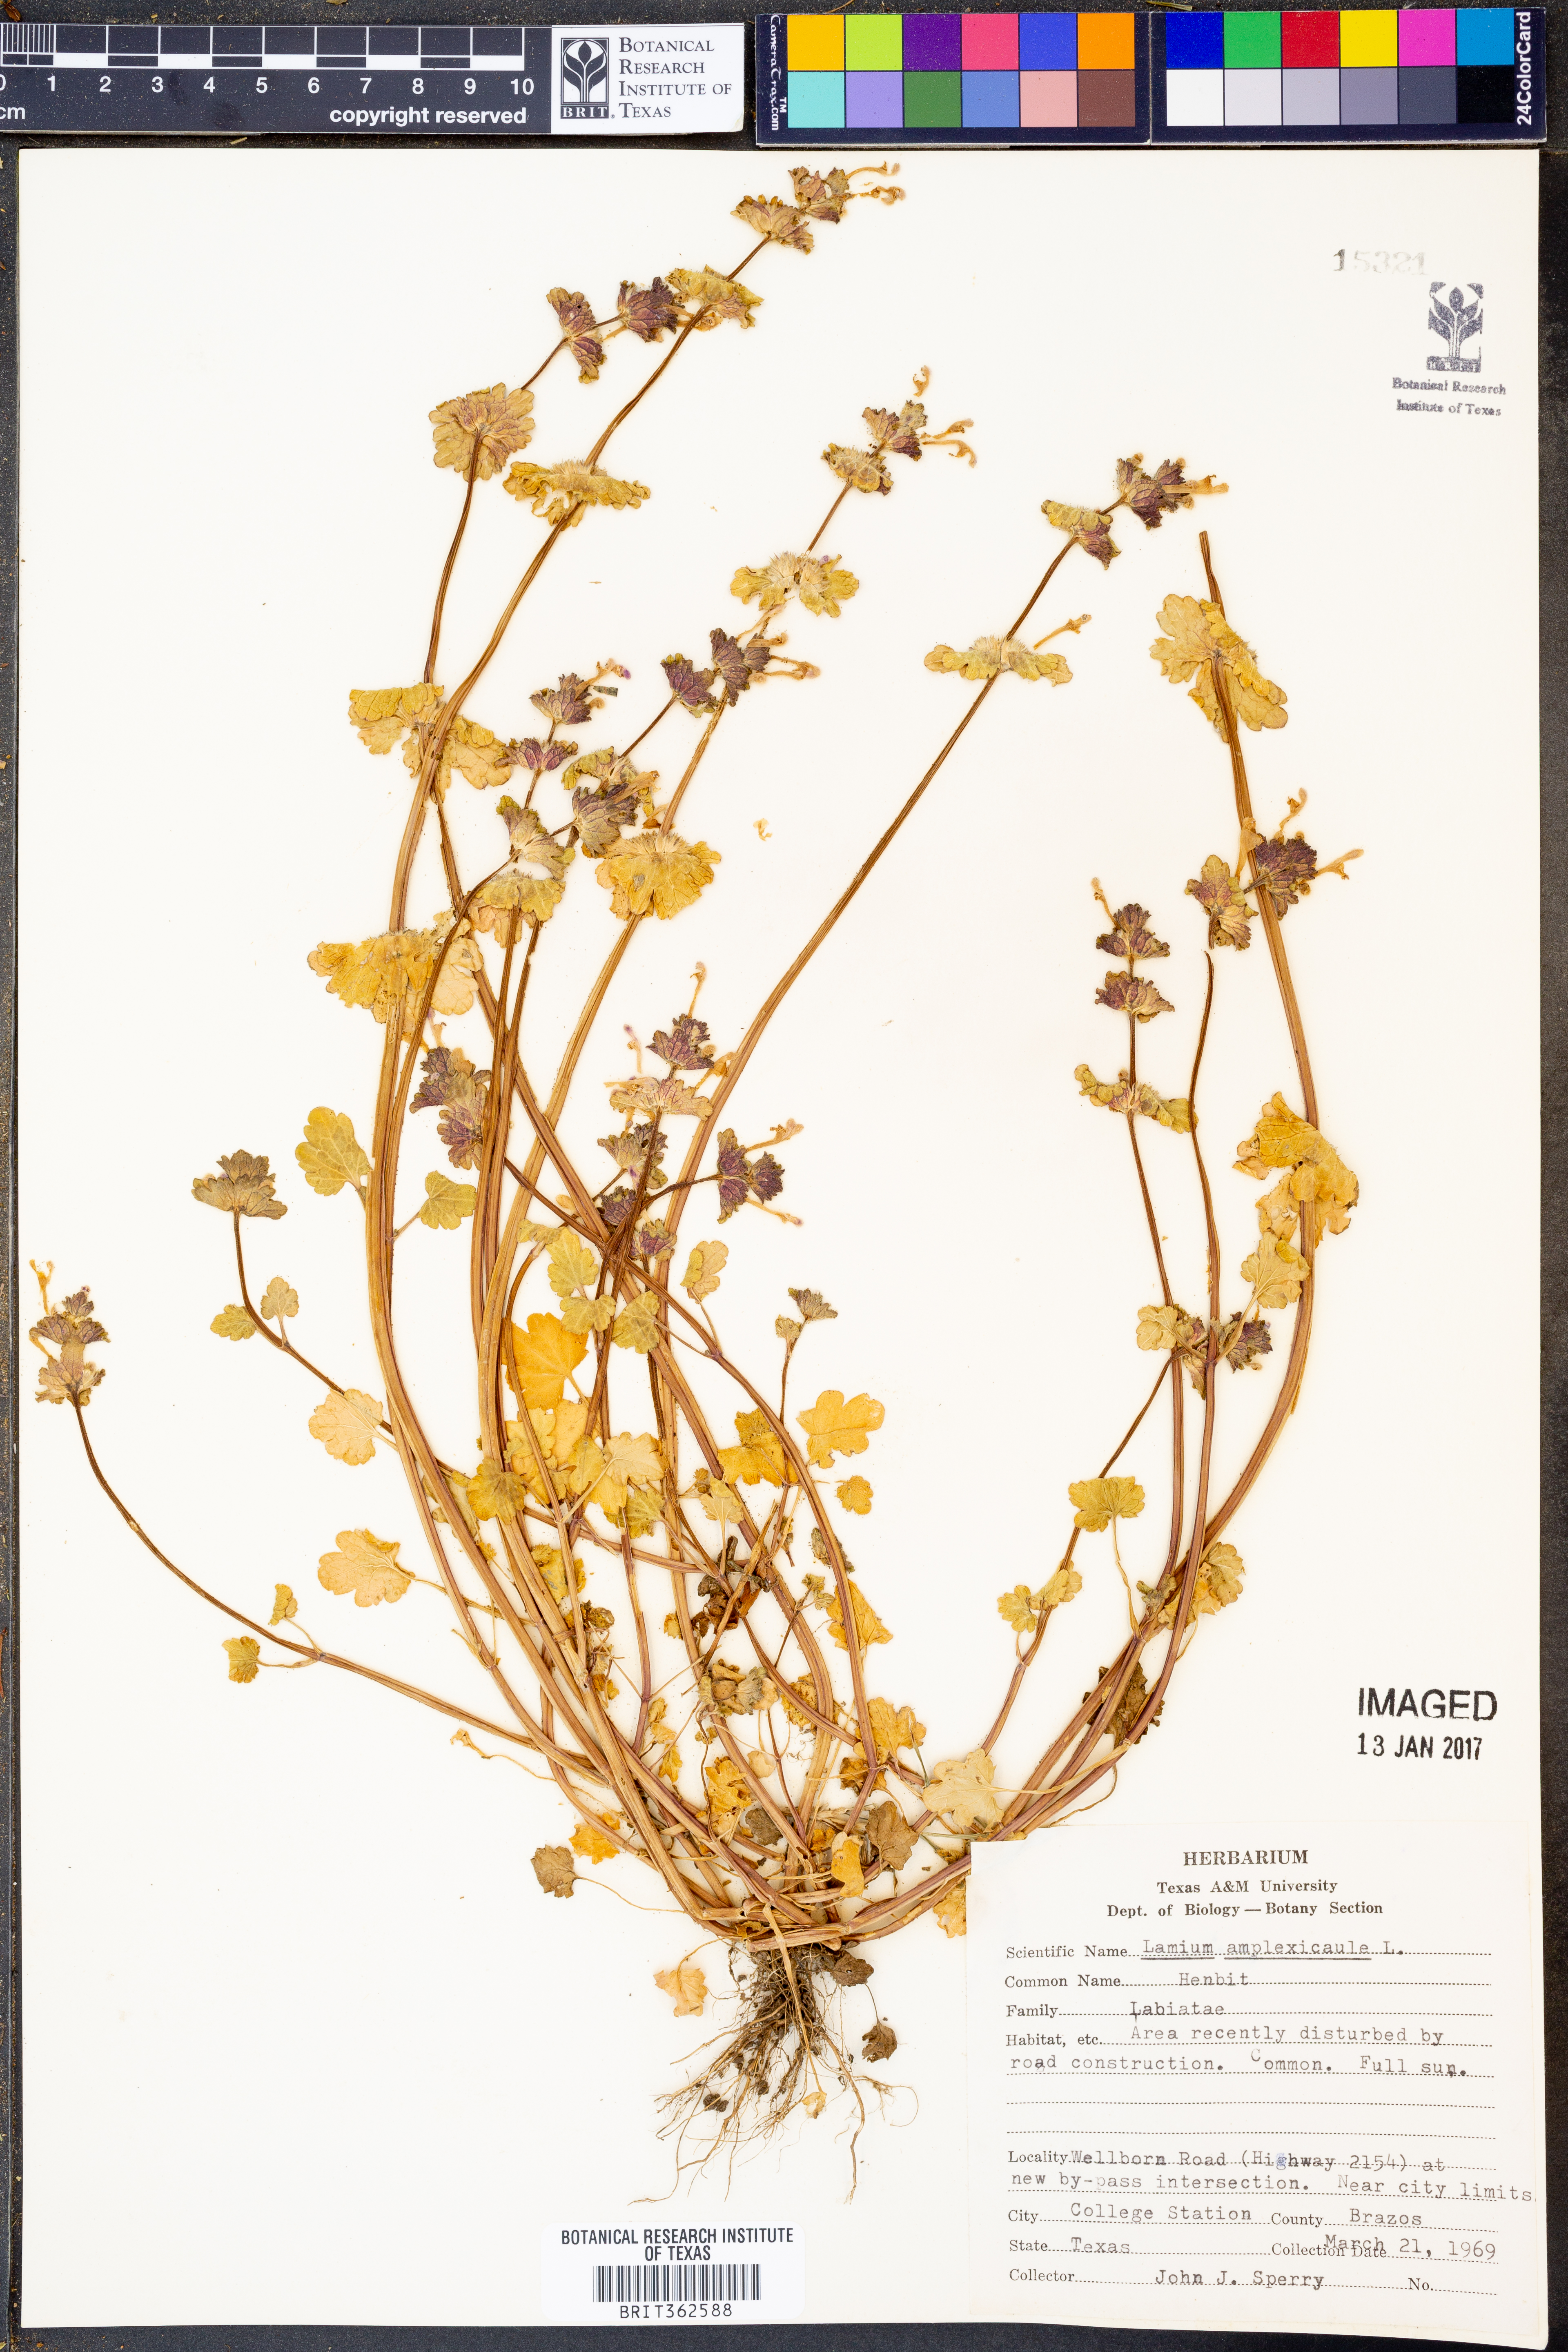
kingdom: Plantae
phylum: Tracheophyta
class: Magnoliopsida
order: Lamiales
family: Lamiaceae
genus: Lamium
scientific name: Lamium amplexicaule
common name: Henbit dead-nettle
